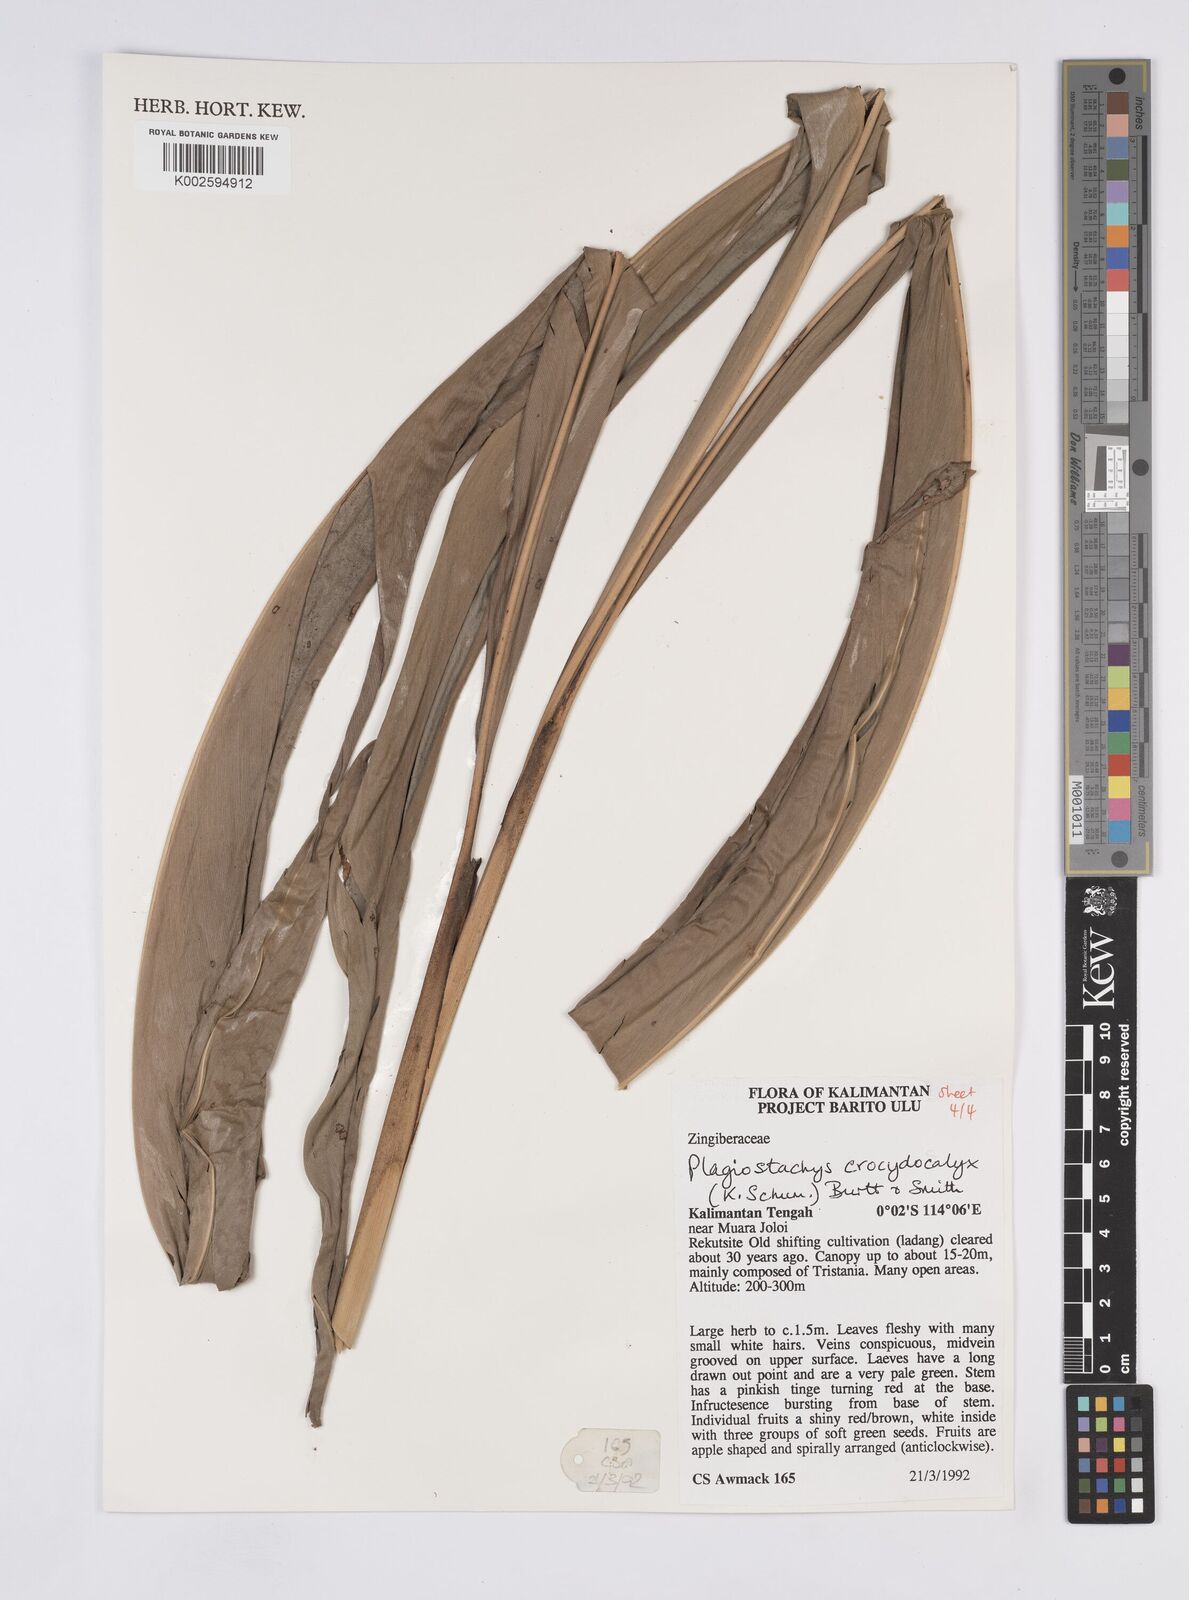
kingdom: Plantae
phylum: Tracheophyta
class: Liliopsida
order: Zingiberales
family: Zingiberaceae
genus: Plagiostachys
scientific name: Plagiostachys crocydocalyx
